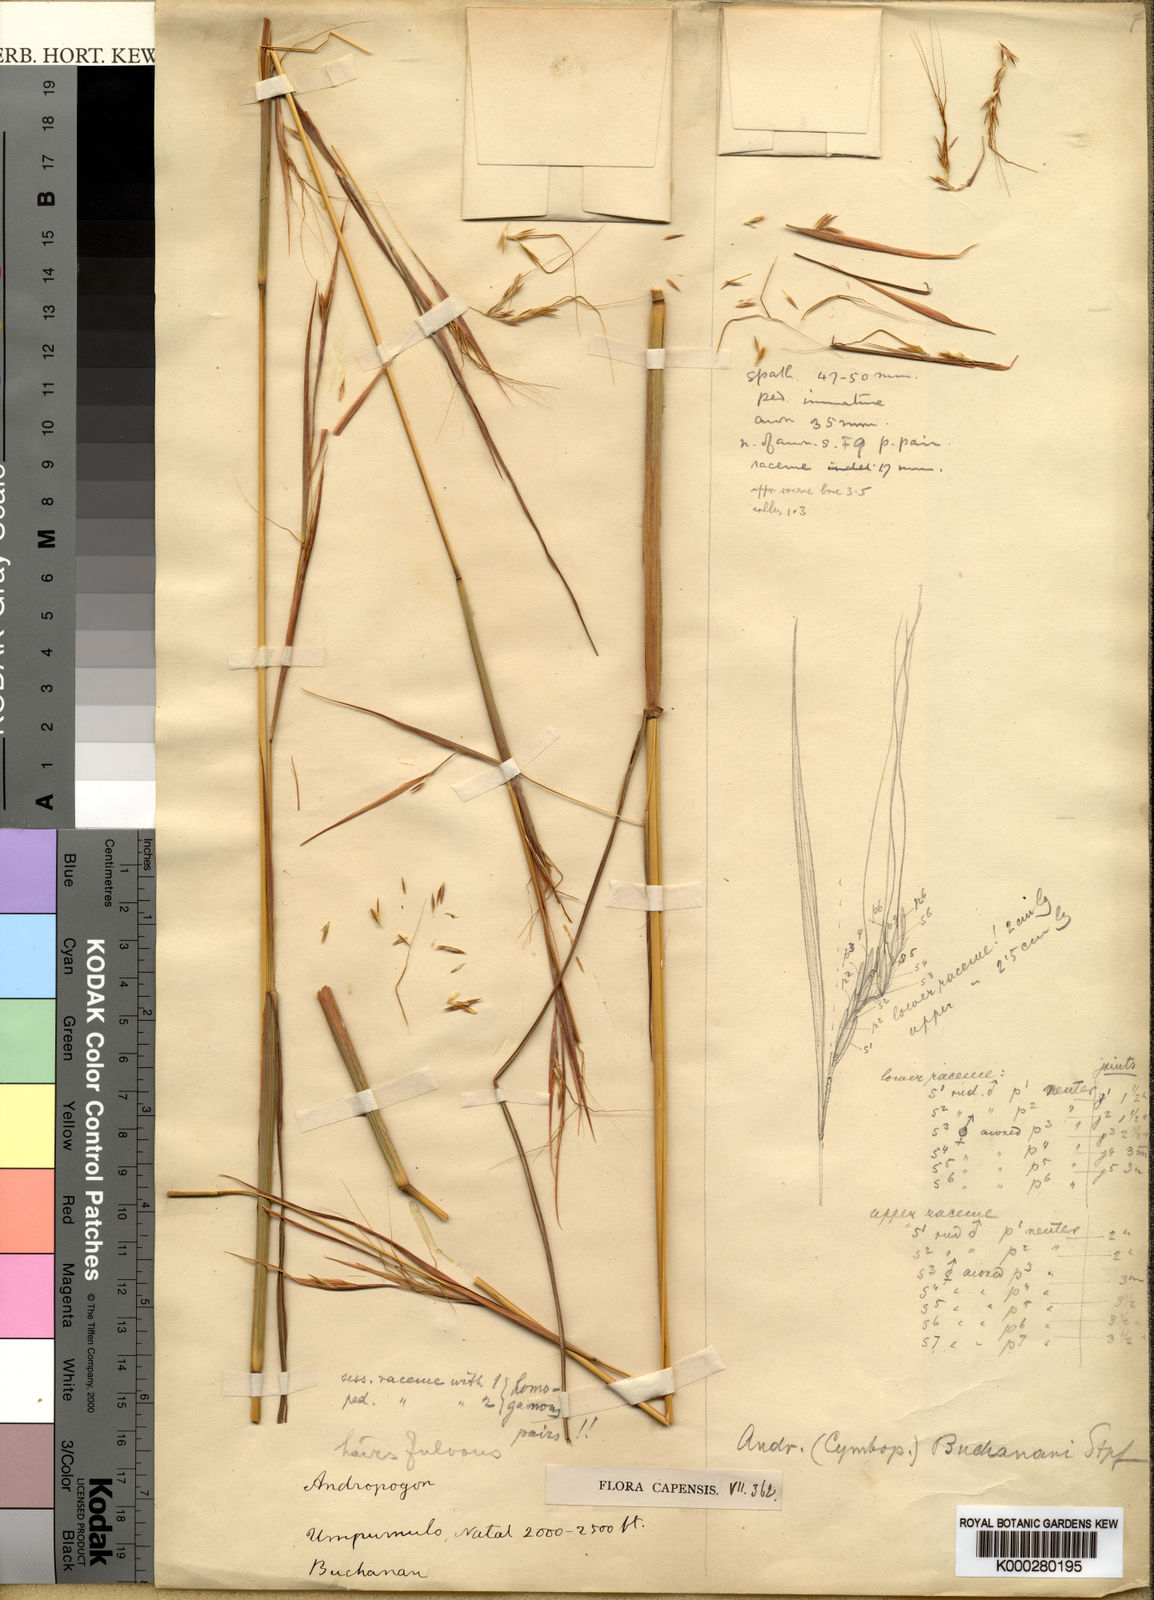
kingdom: Plantae
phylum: Tracheophyta
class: Liliopsida
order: Poales
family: Poaceae
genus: Hyparrhenia
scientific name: Hyparrhenia poecilotricha
